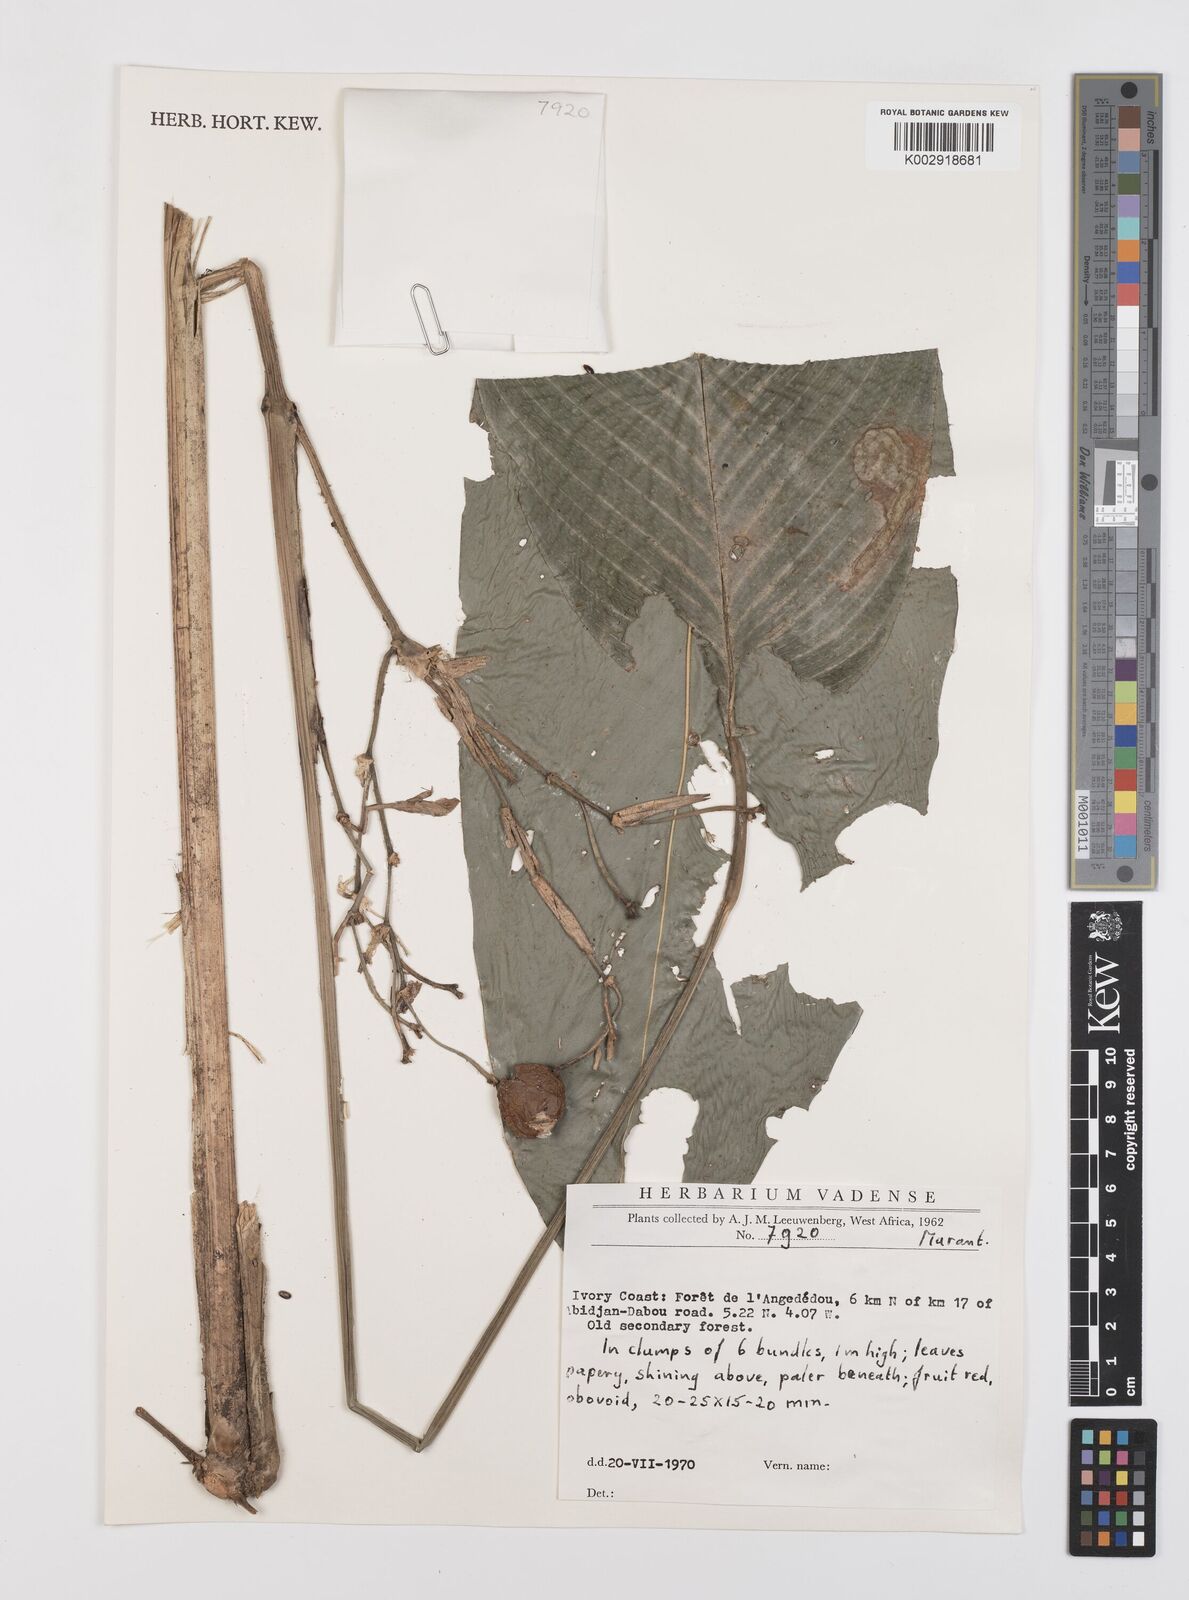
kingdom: Plantae
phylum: Tracheophyta
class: Liliopsida
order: Zingiberales
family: Marantaceae
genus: Sarcophrynium
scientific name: Sarcophrynium prionogonium
